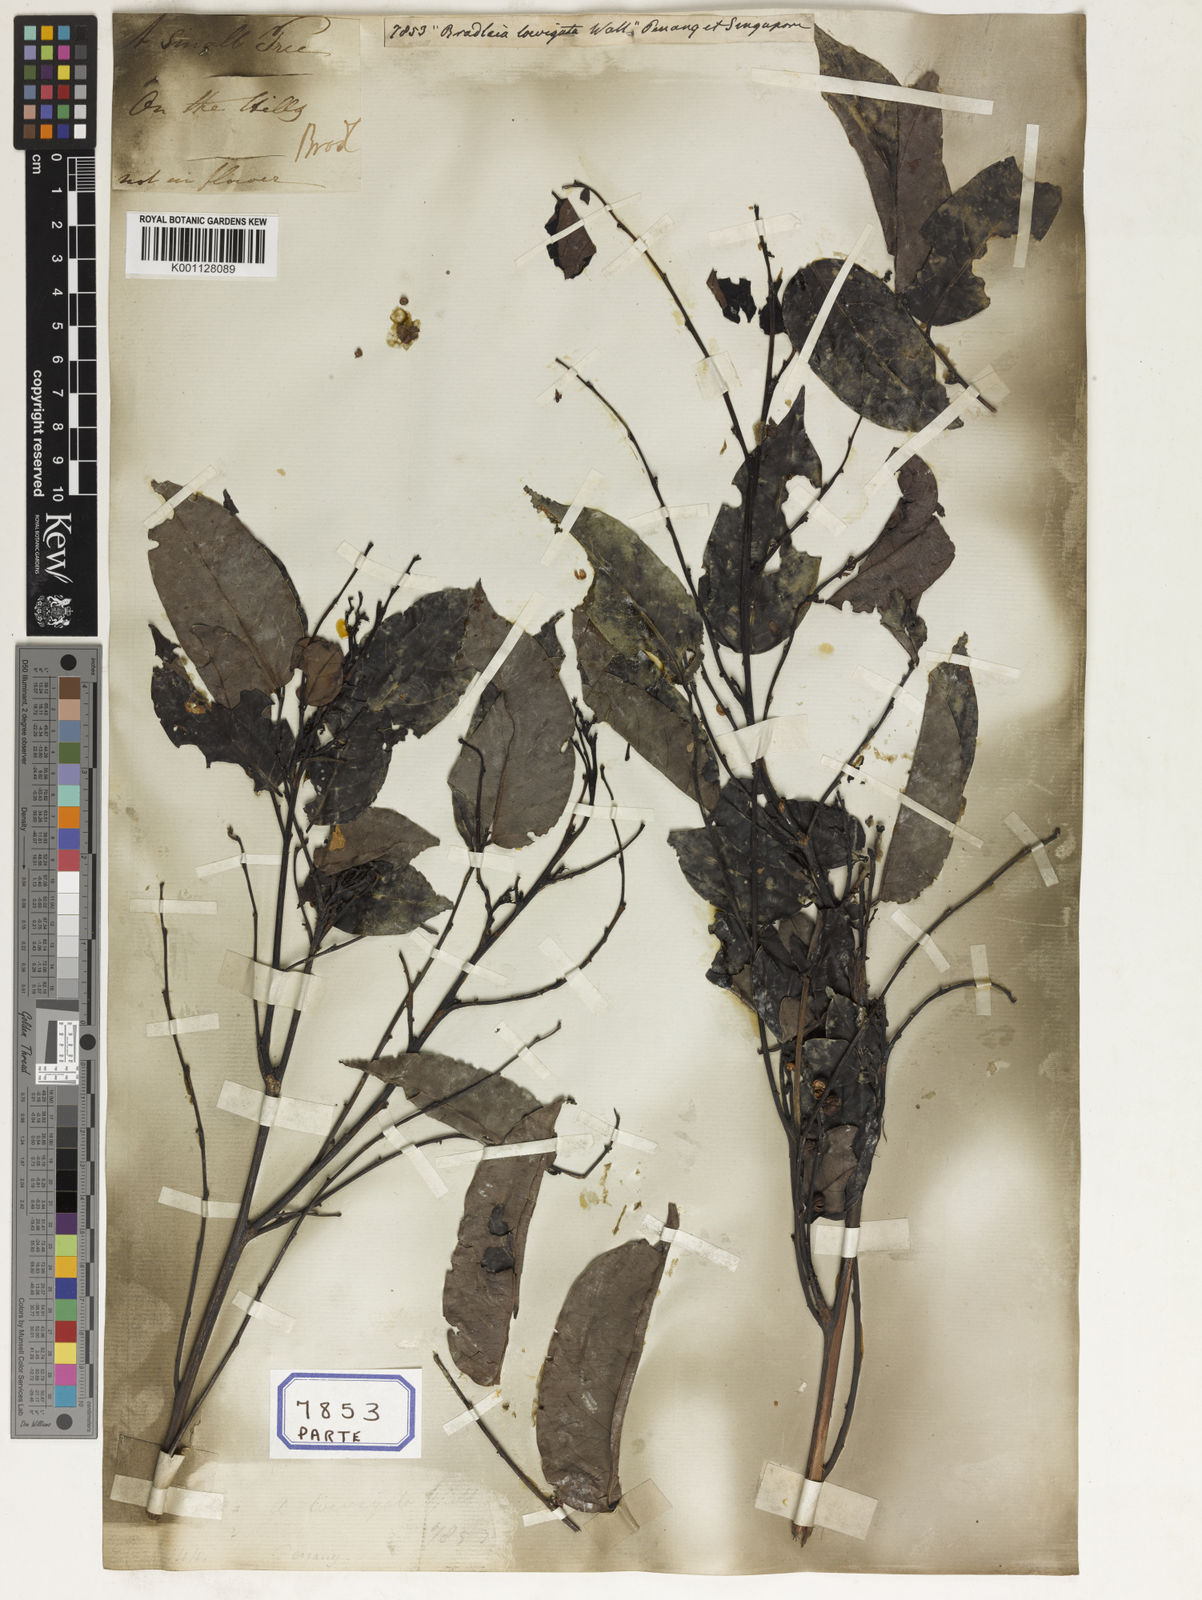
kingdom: Plantae
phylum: Tracheophyta
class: Magnoliopsida
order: Malpighiales
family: Euphorbiaceae
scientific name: Euphorbiaceae
